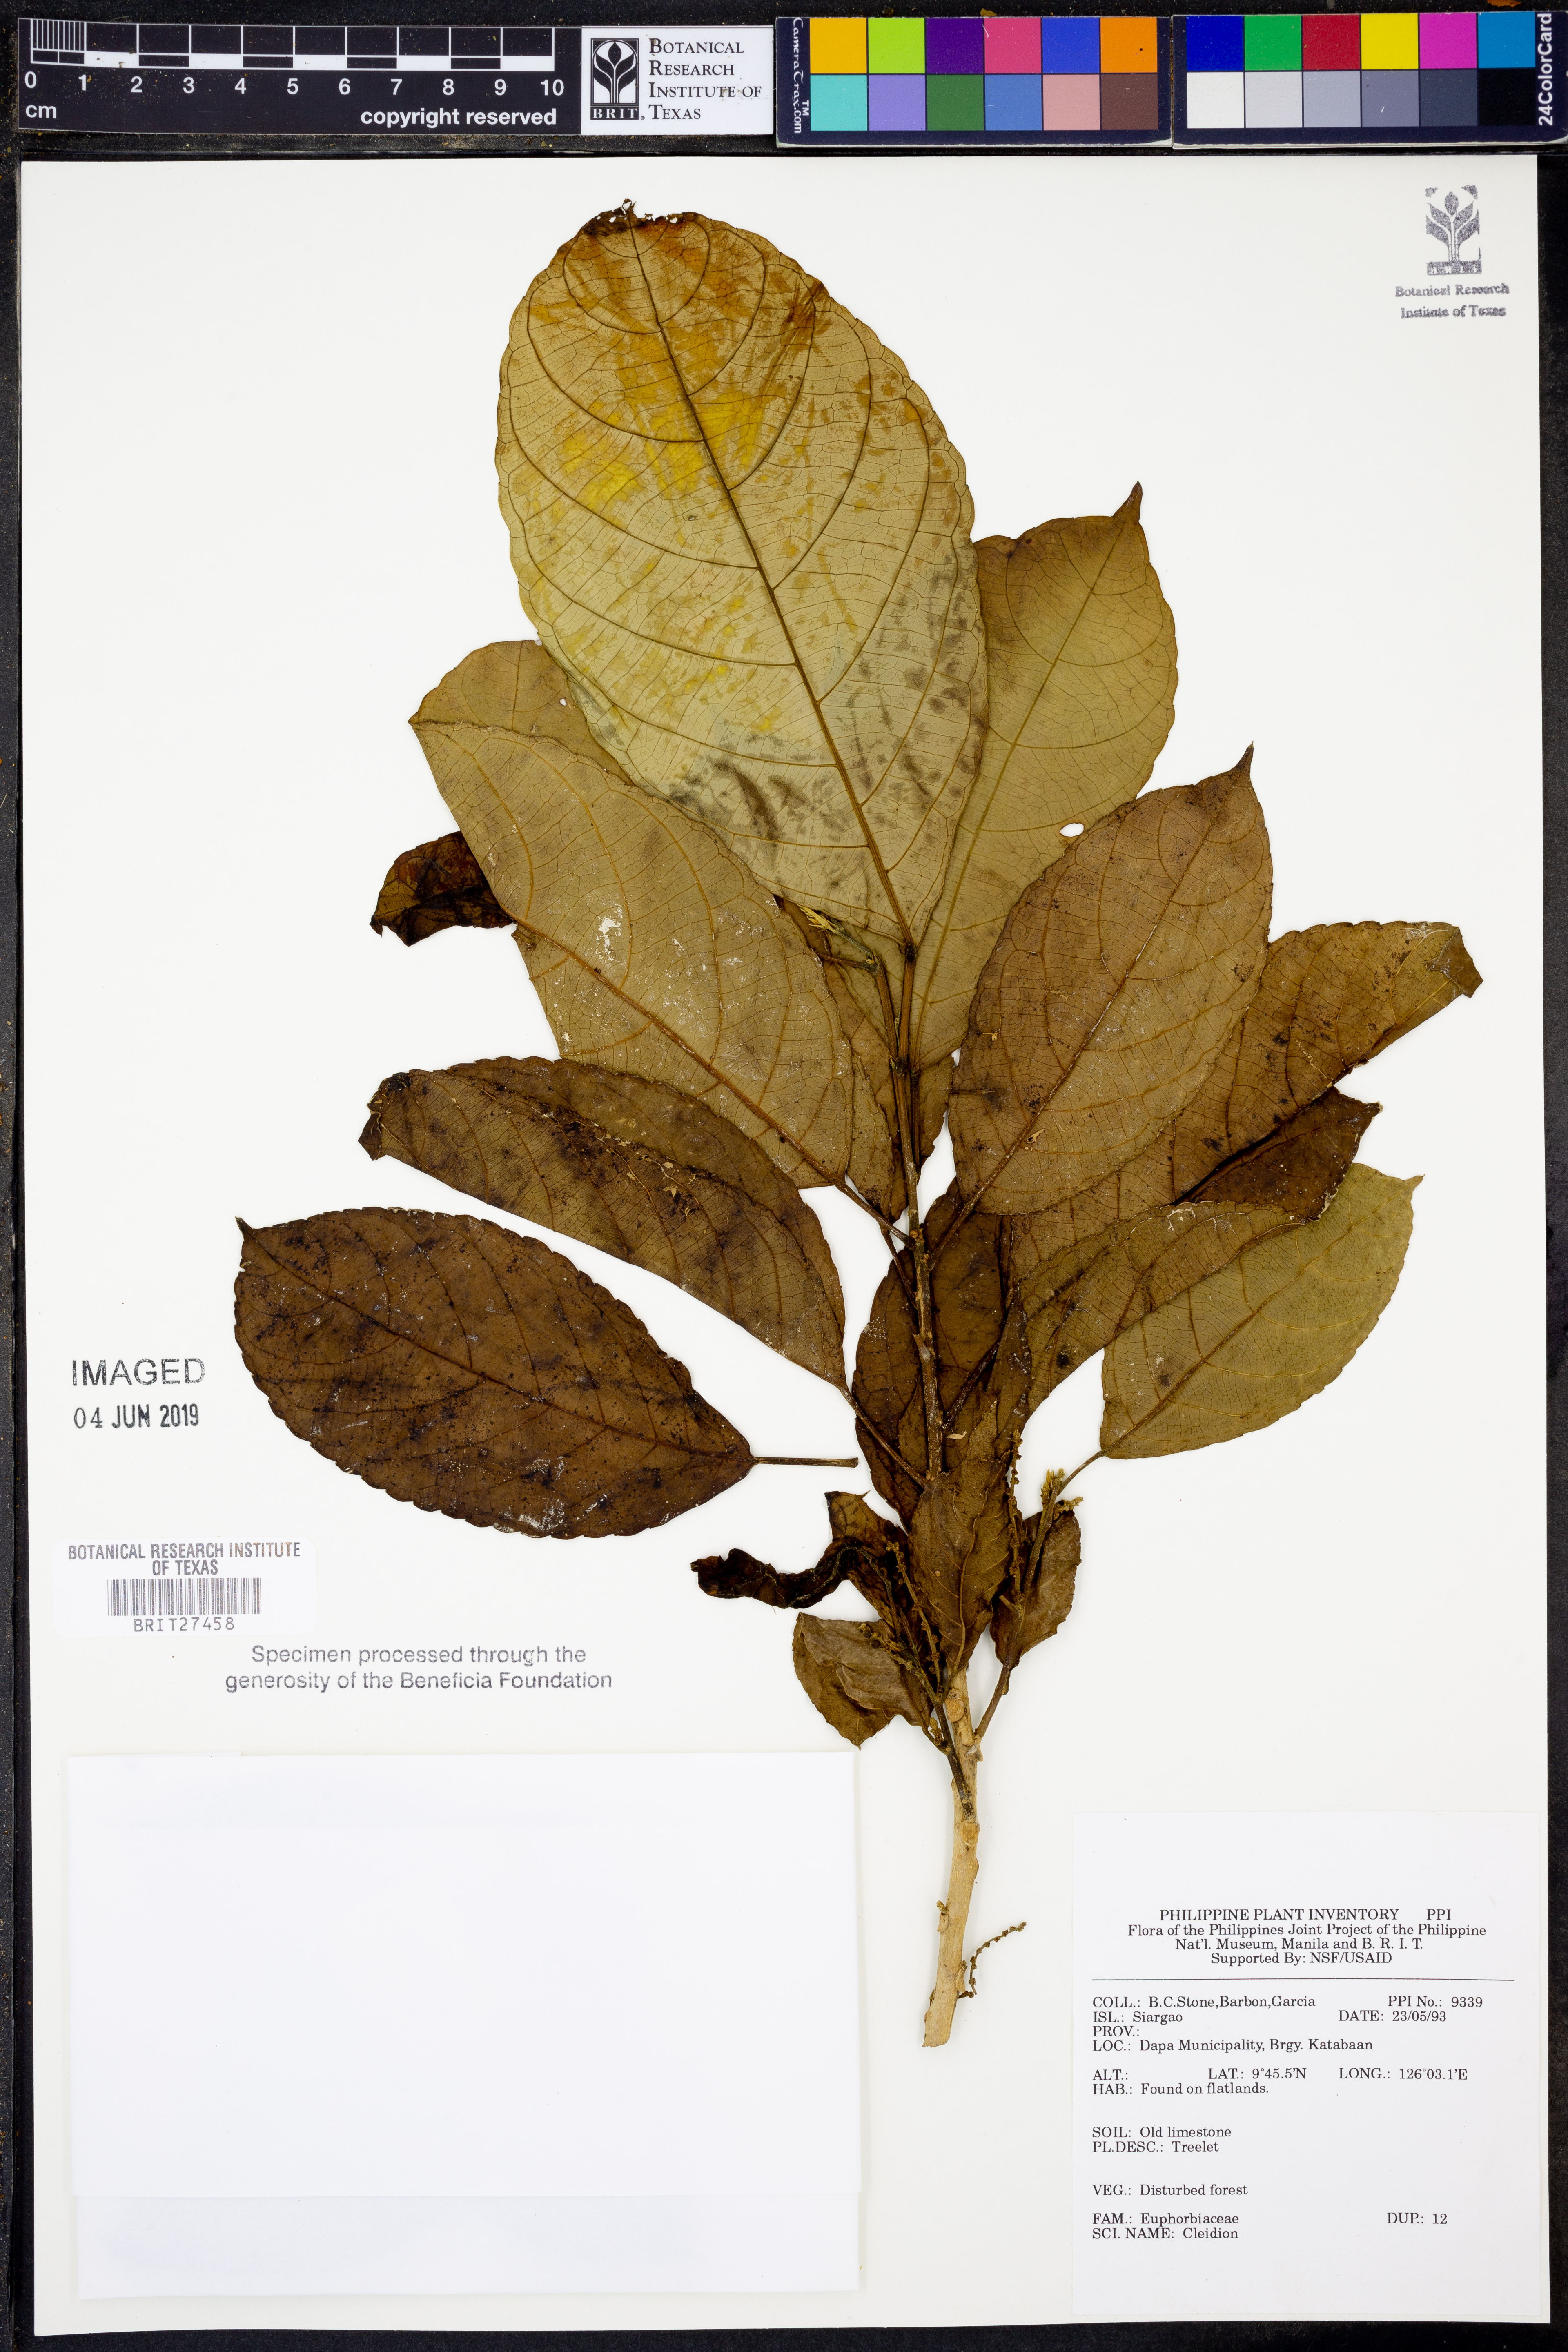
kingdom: Plantae
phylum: Tracheophyta
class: Magnoliopsida
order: Malpighiales
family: Euphorbiaceae
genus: Cleidion
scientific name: Cleidion
